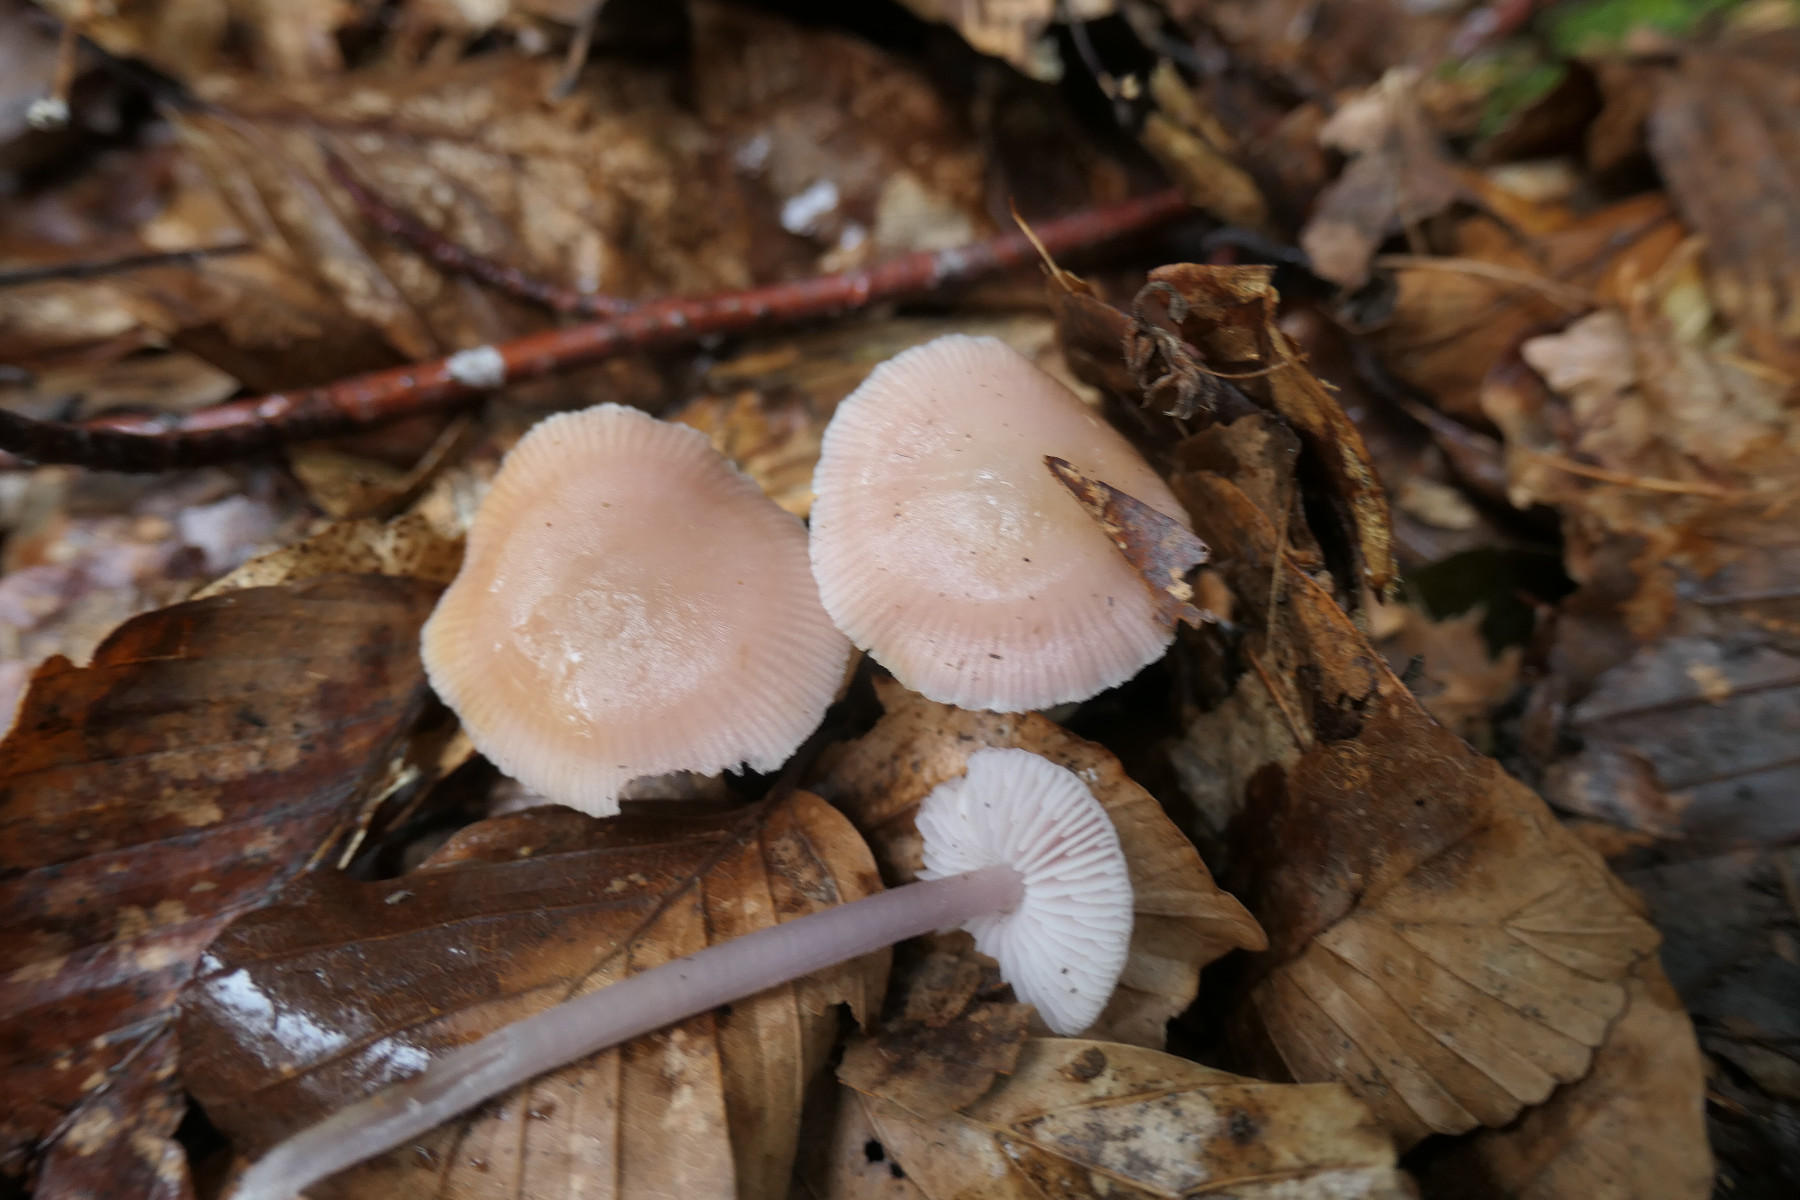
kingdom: Fungi
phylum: Basidiomycota
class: Agaricomycetes
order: Agaricales
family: Mycenaceae
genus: Mycena
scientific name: Mycena rosea
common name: rosa huesvamp
